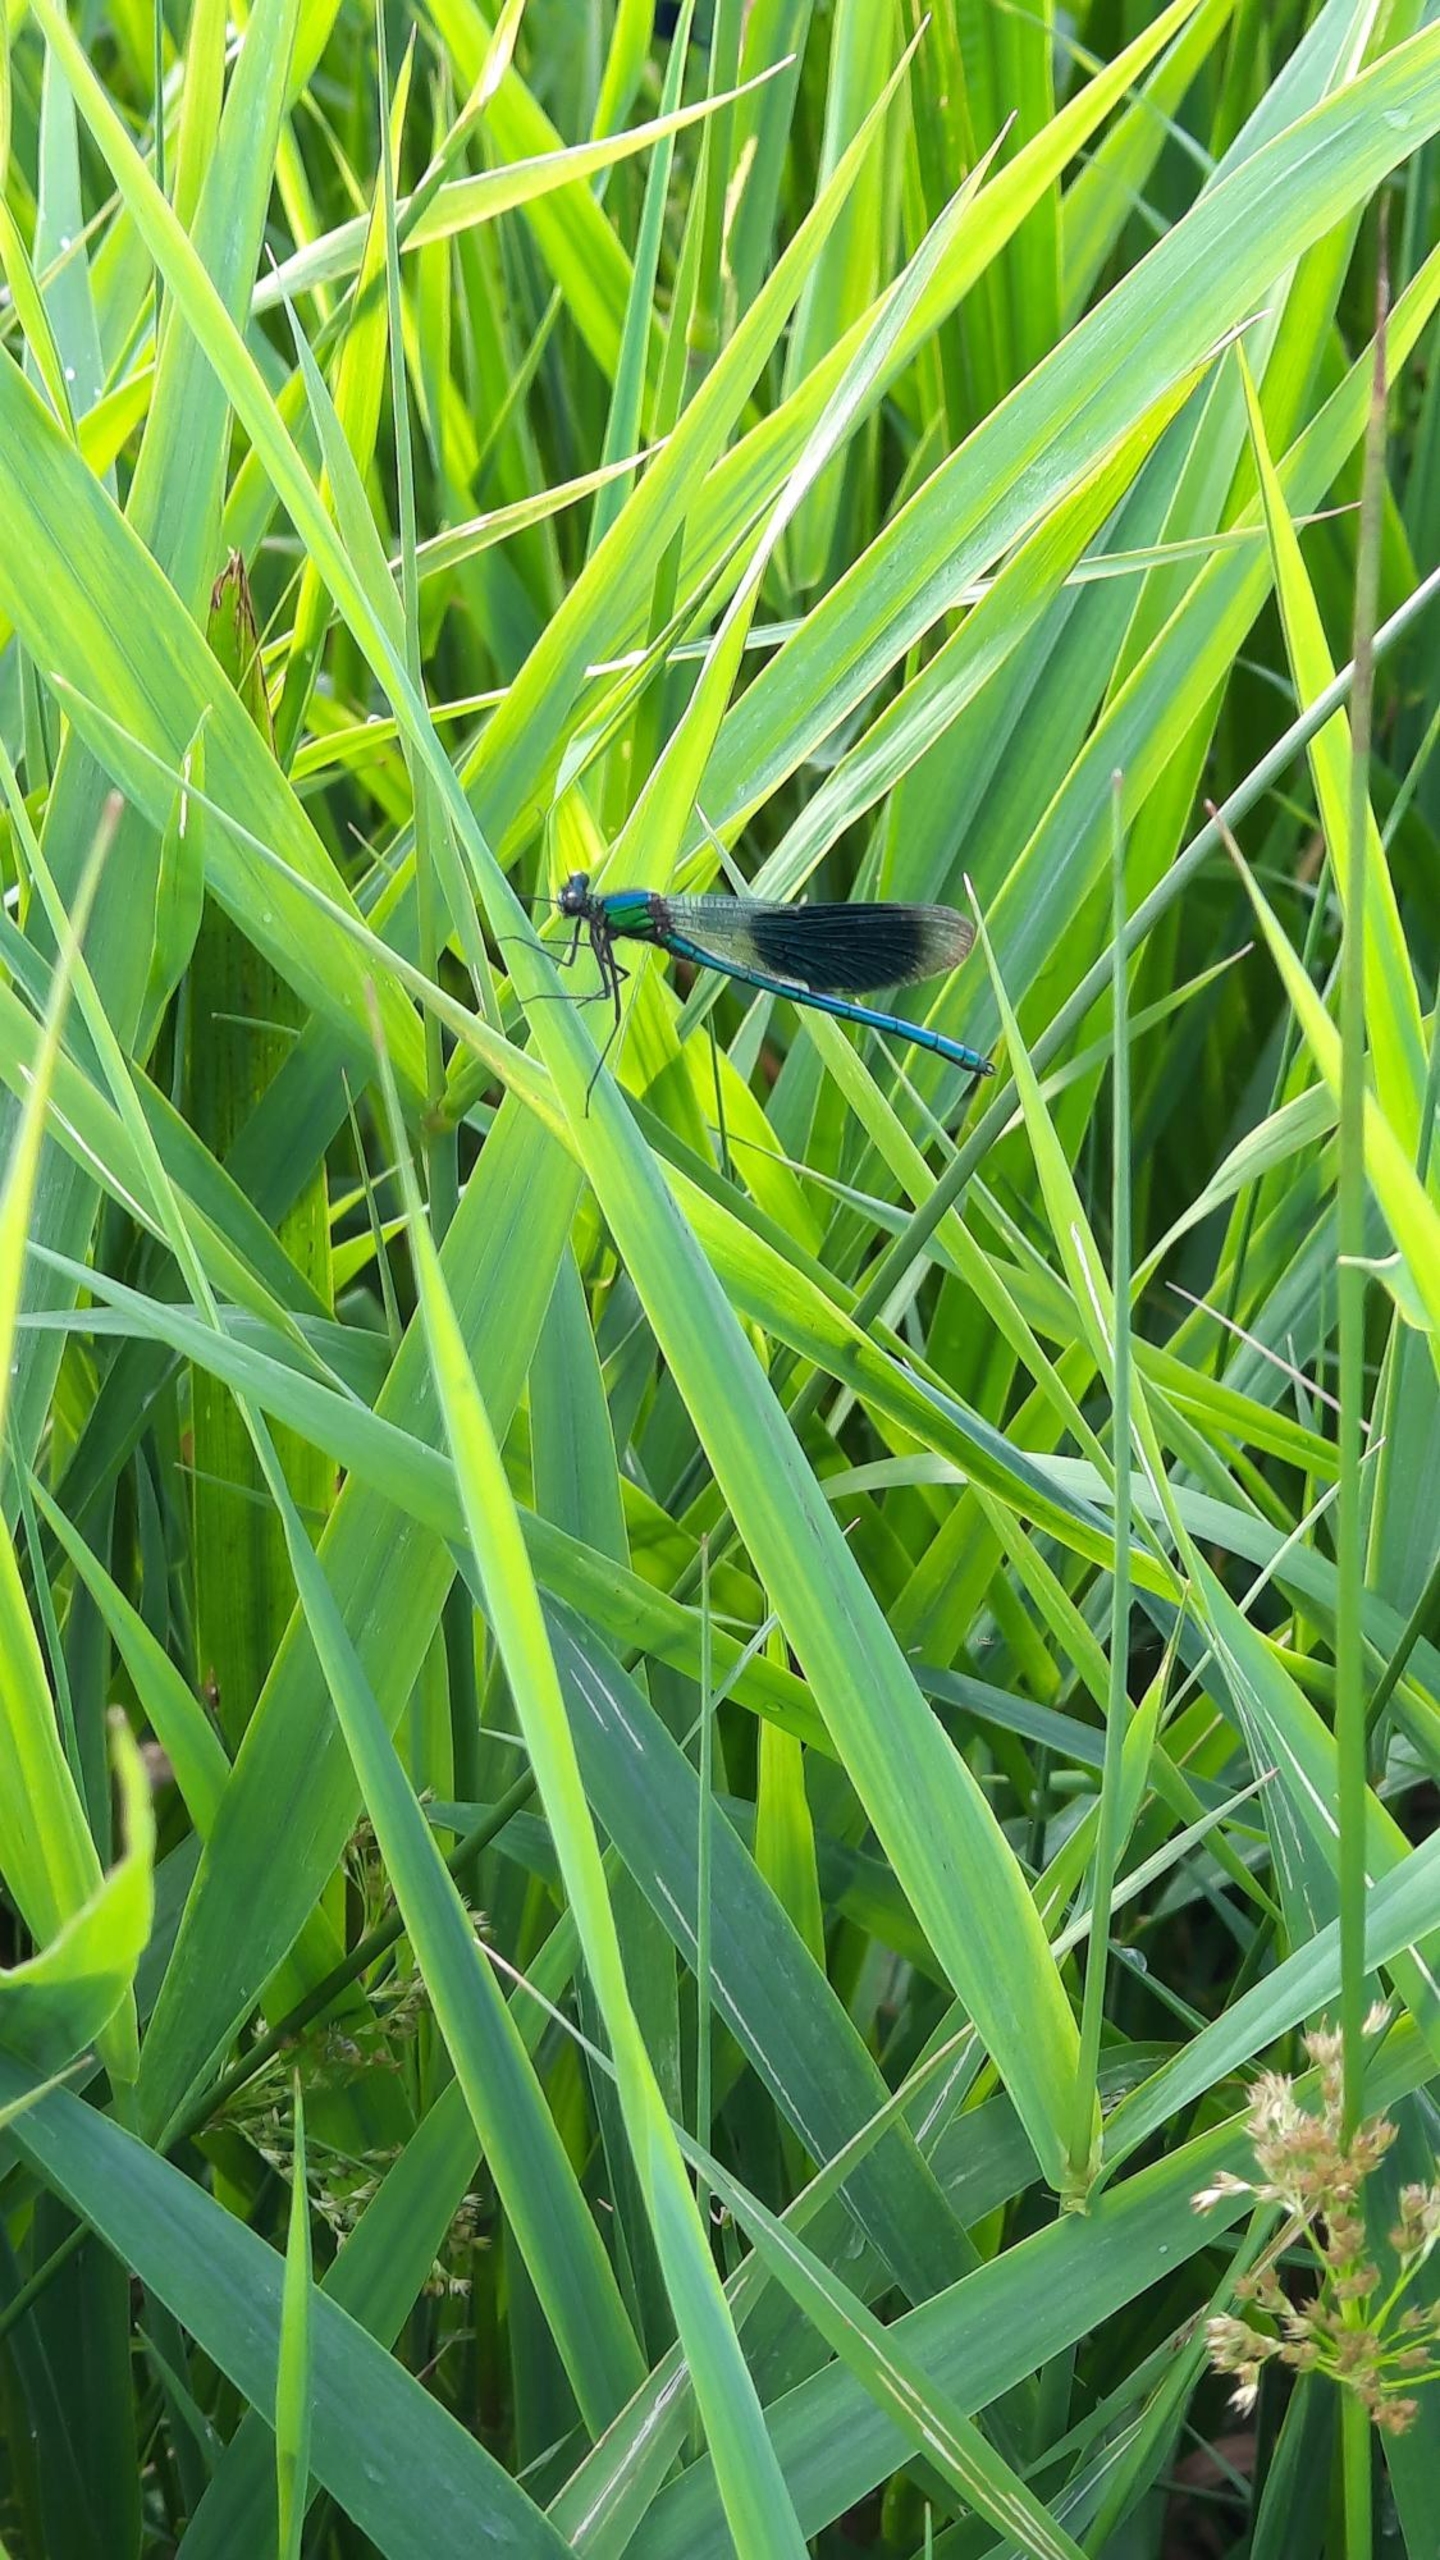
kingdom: Animalia
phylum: Arthropoda
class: Insecta
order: Odonata
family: Calopterygidae
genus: Calopteryx
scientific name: Calopteryx splendens
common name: Blåbåndet pragtvandnymfe
